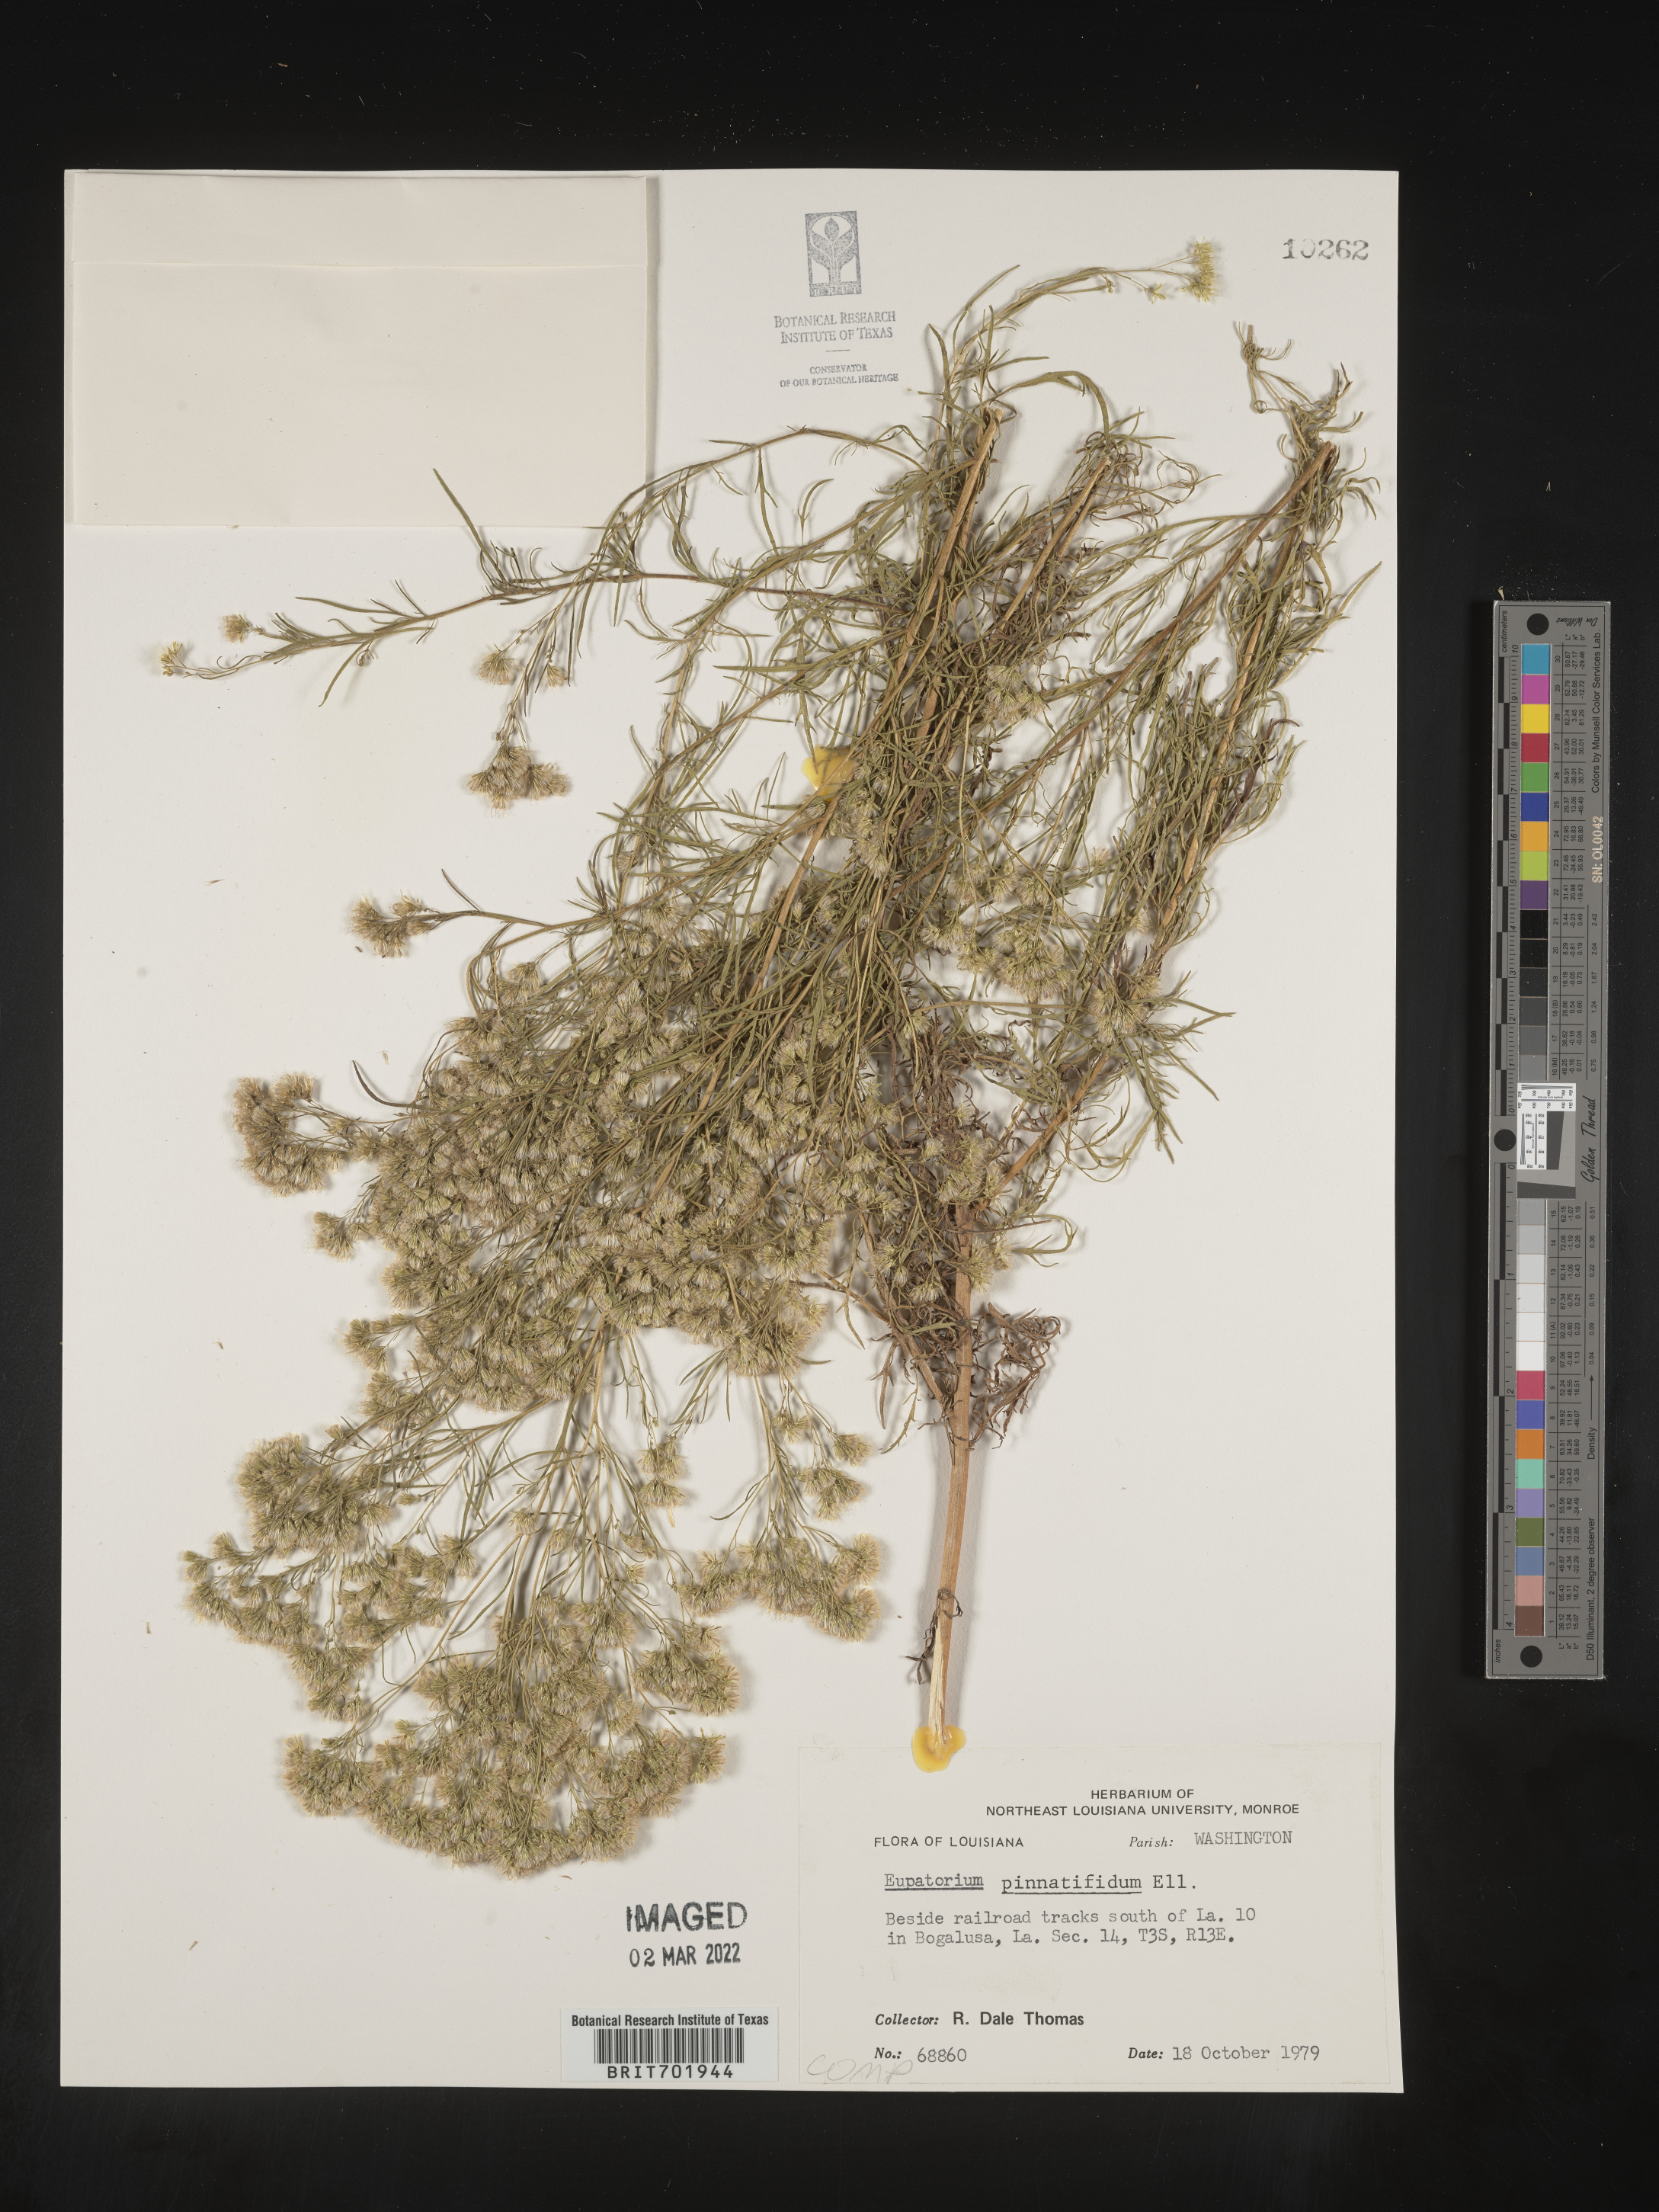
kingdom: Plantae
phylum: Tracheophyta
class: Magnoliopsida
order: Asterales
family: Asteraceae
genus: Eupatorium
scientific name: Eupatorium pinnatifidum
